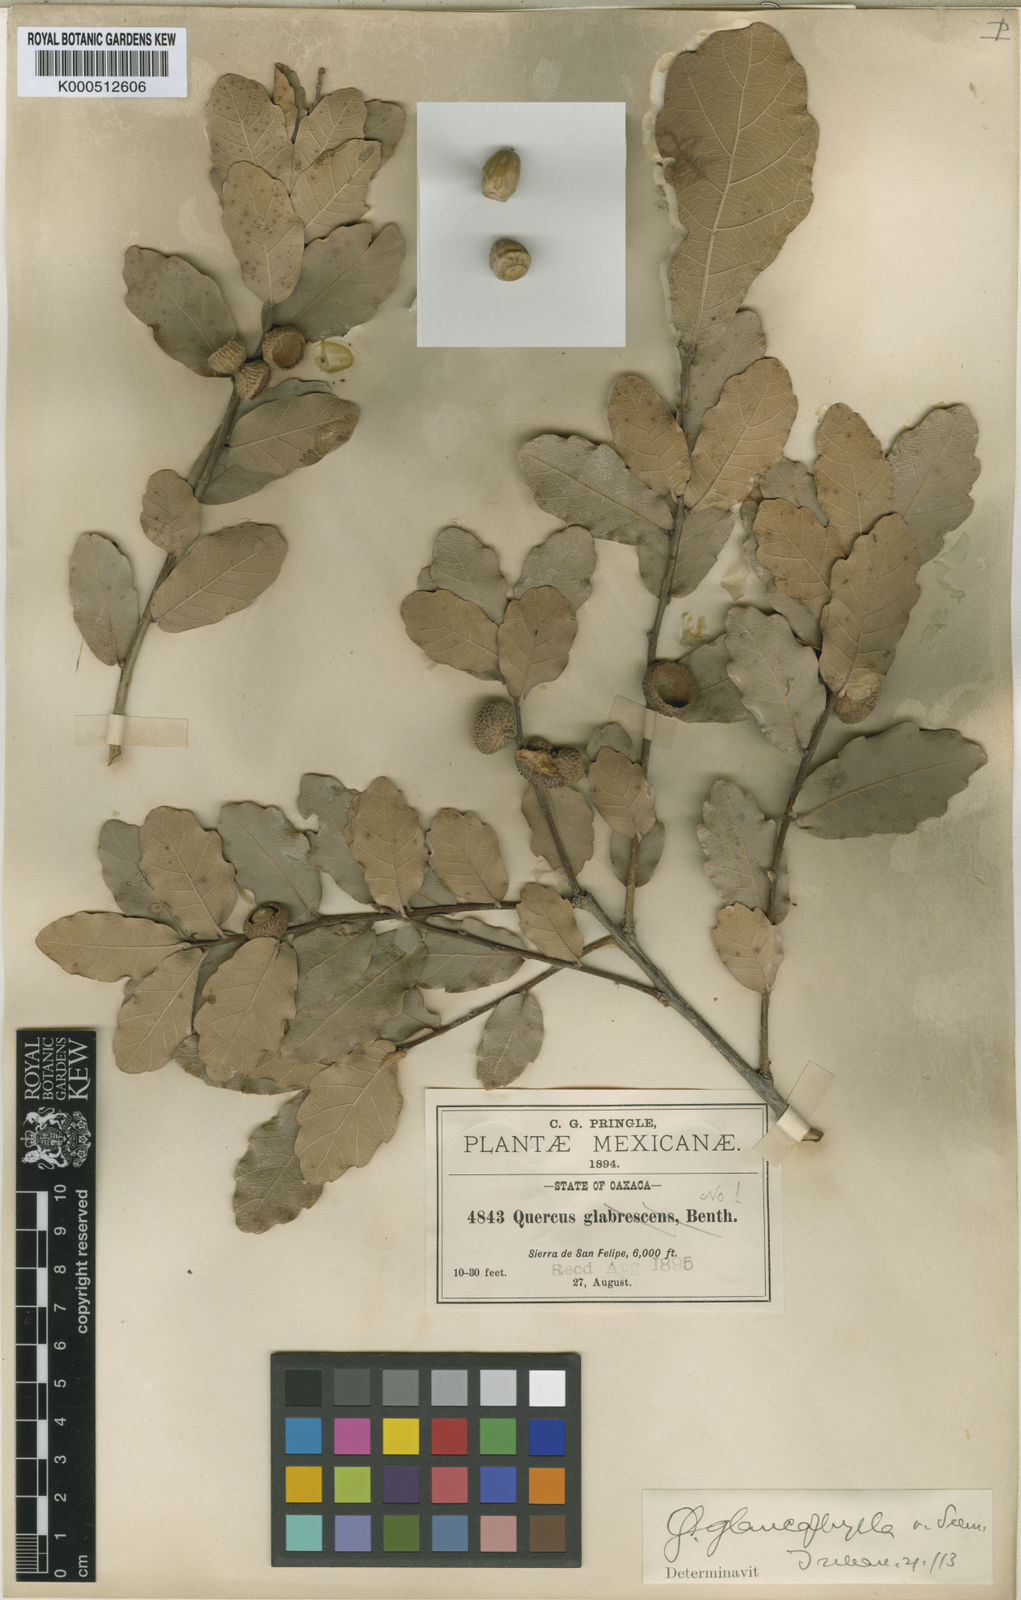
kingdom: Plantae
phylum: Tracheophyta
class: Magnoliopsida
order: Fagales
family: Fagaceae
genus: Quercus
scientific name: Quercus
